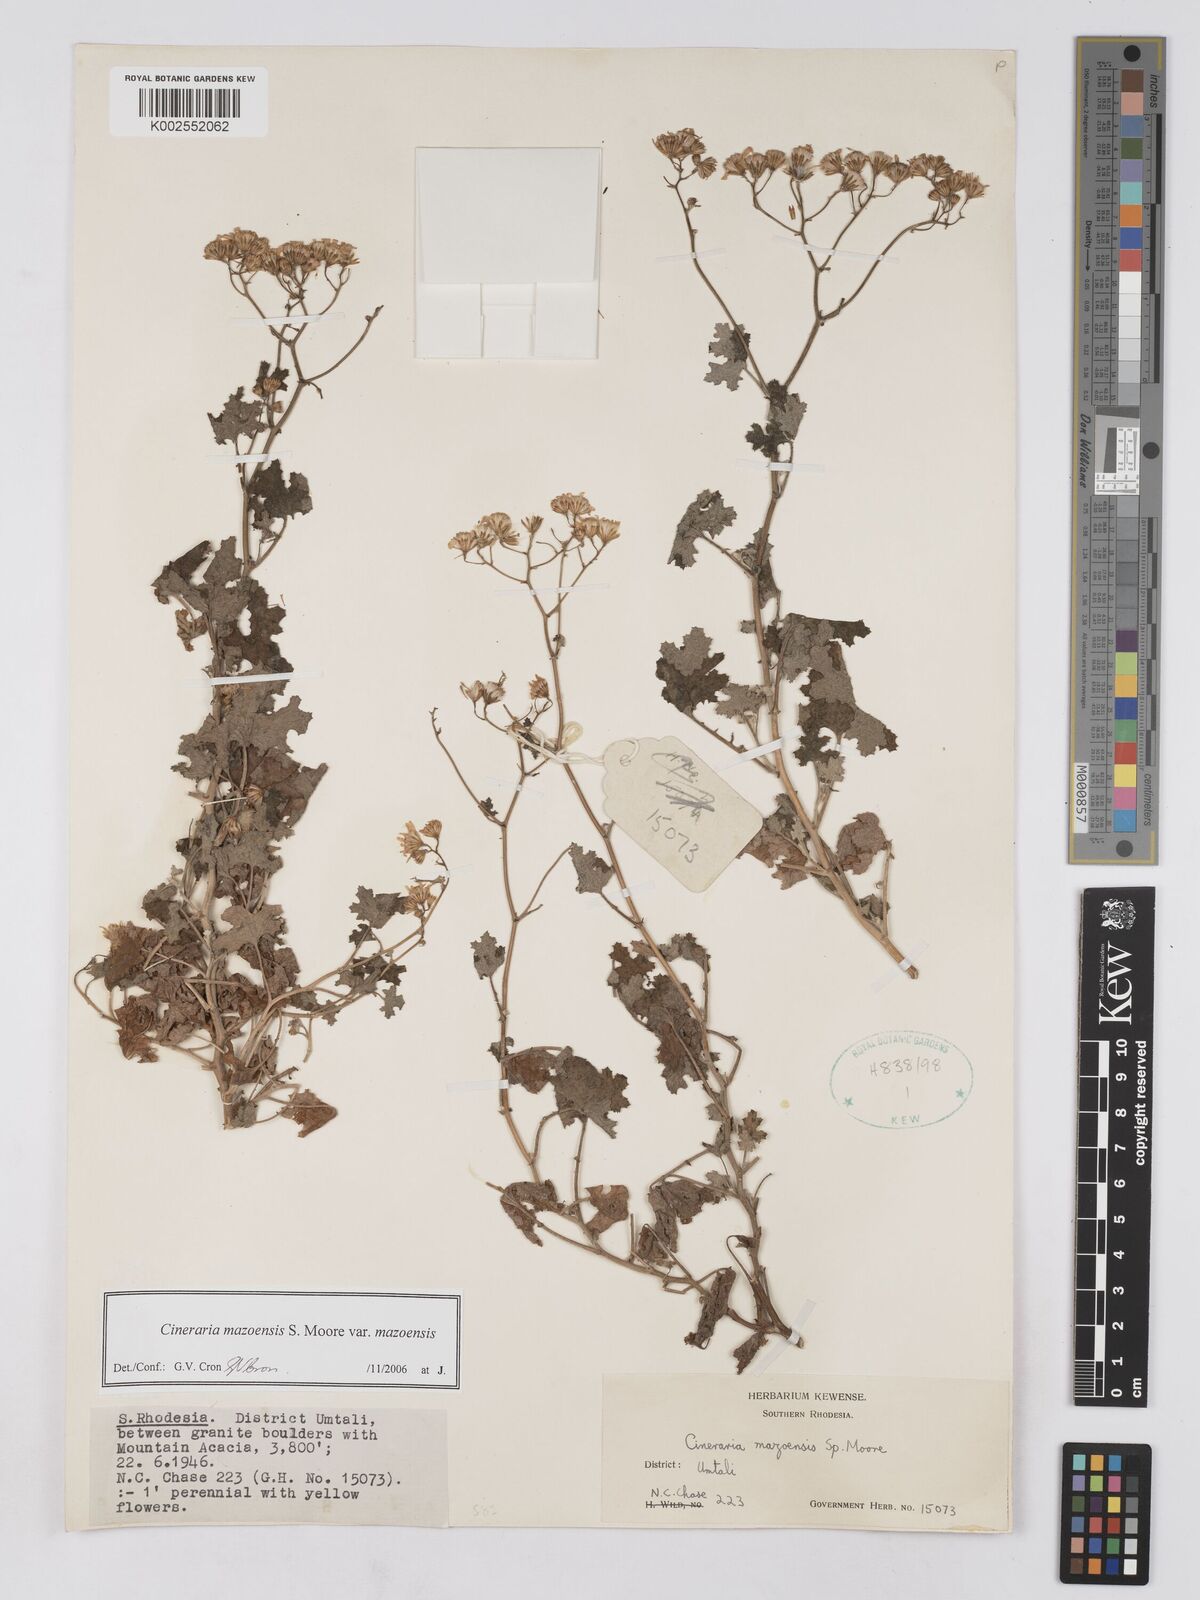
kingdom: Plantae
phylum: Tracheophyta
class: Magnoliopsida
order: Asterales
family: Asteraceae
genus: Cineraria
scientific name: Cineraria mazoensis
